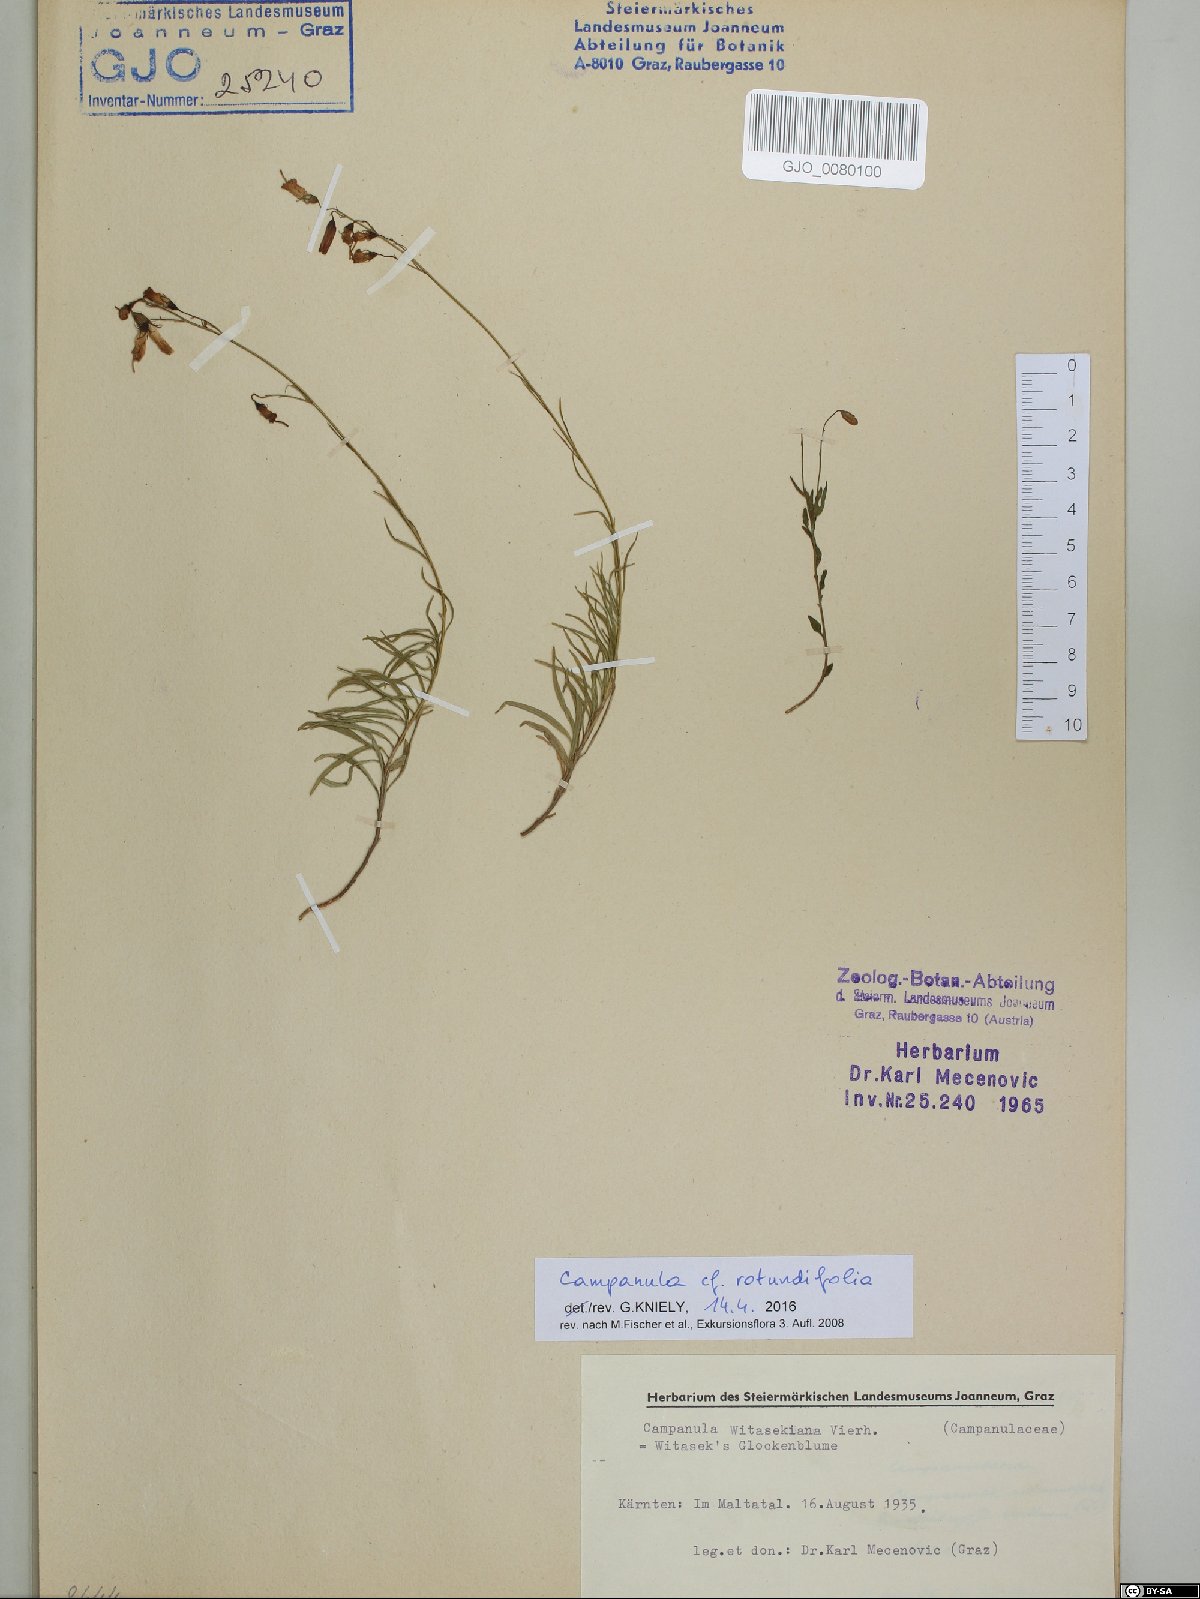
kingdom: Plantae
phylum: Tracheophyta
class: Magnoliopsida
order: Asterales
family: Campanulaceae
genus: Campanula
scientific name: Campanula rotundifolia
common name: Harebell
